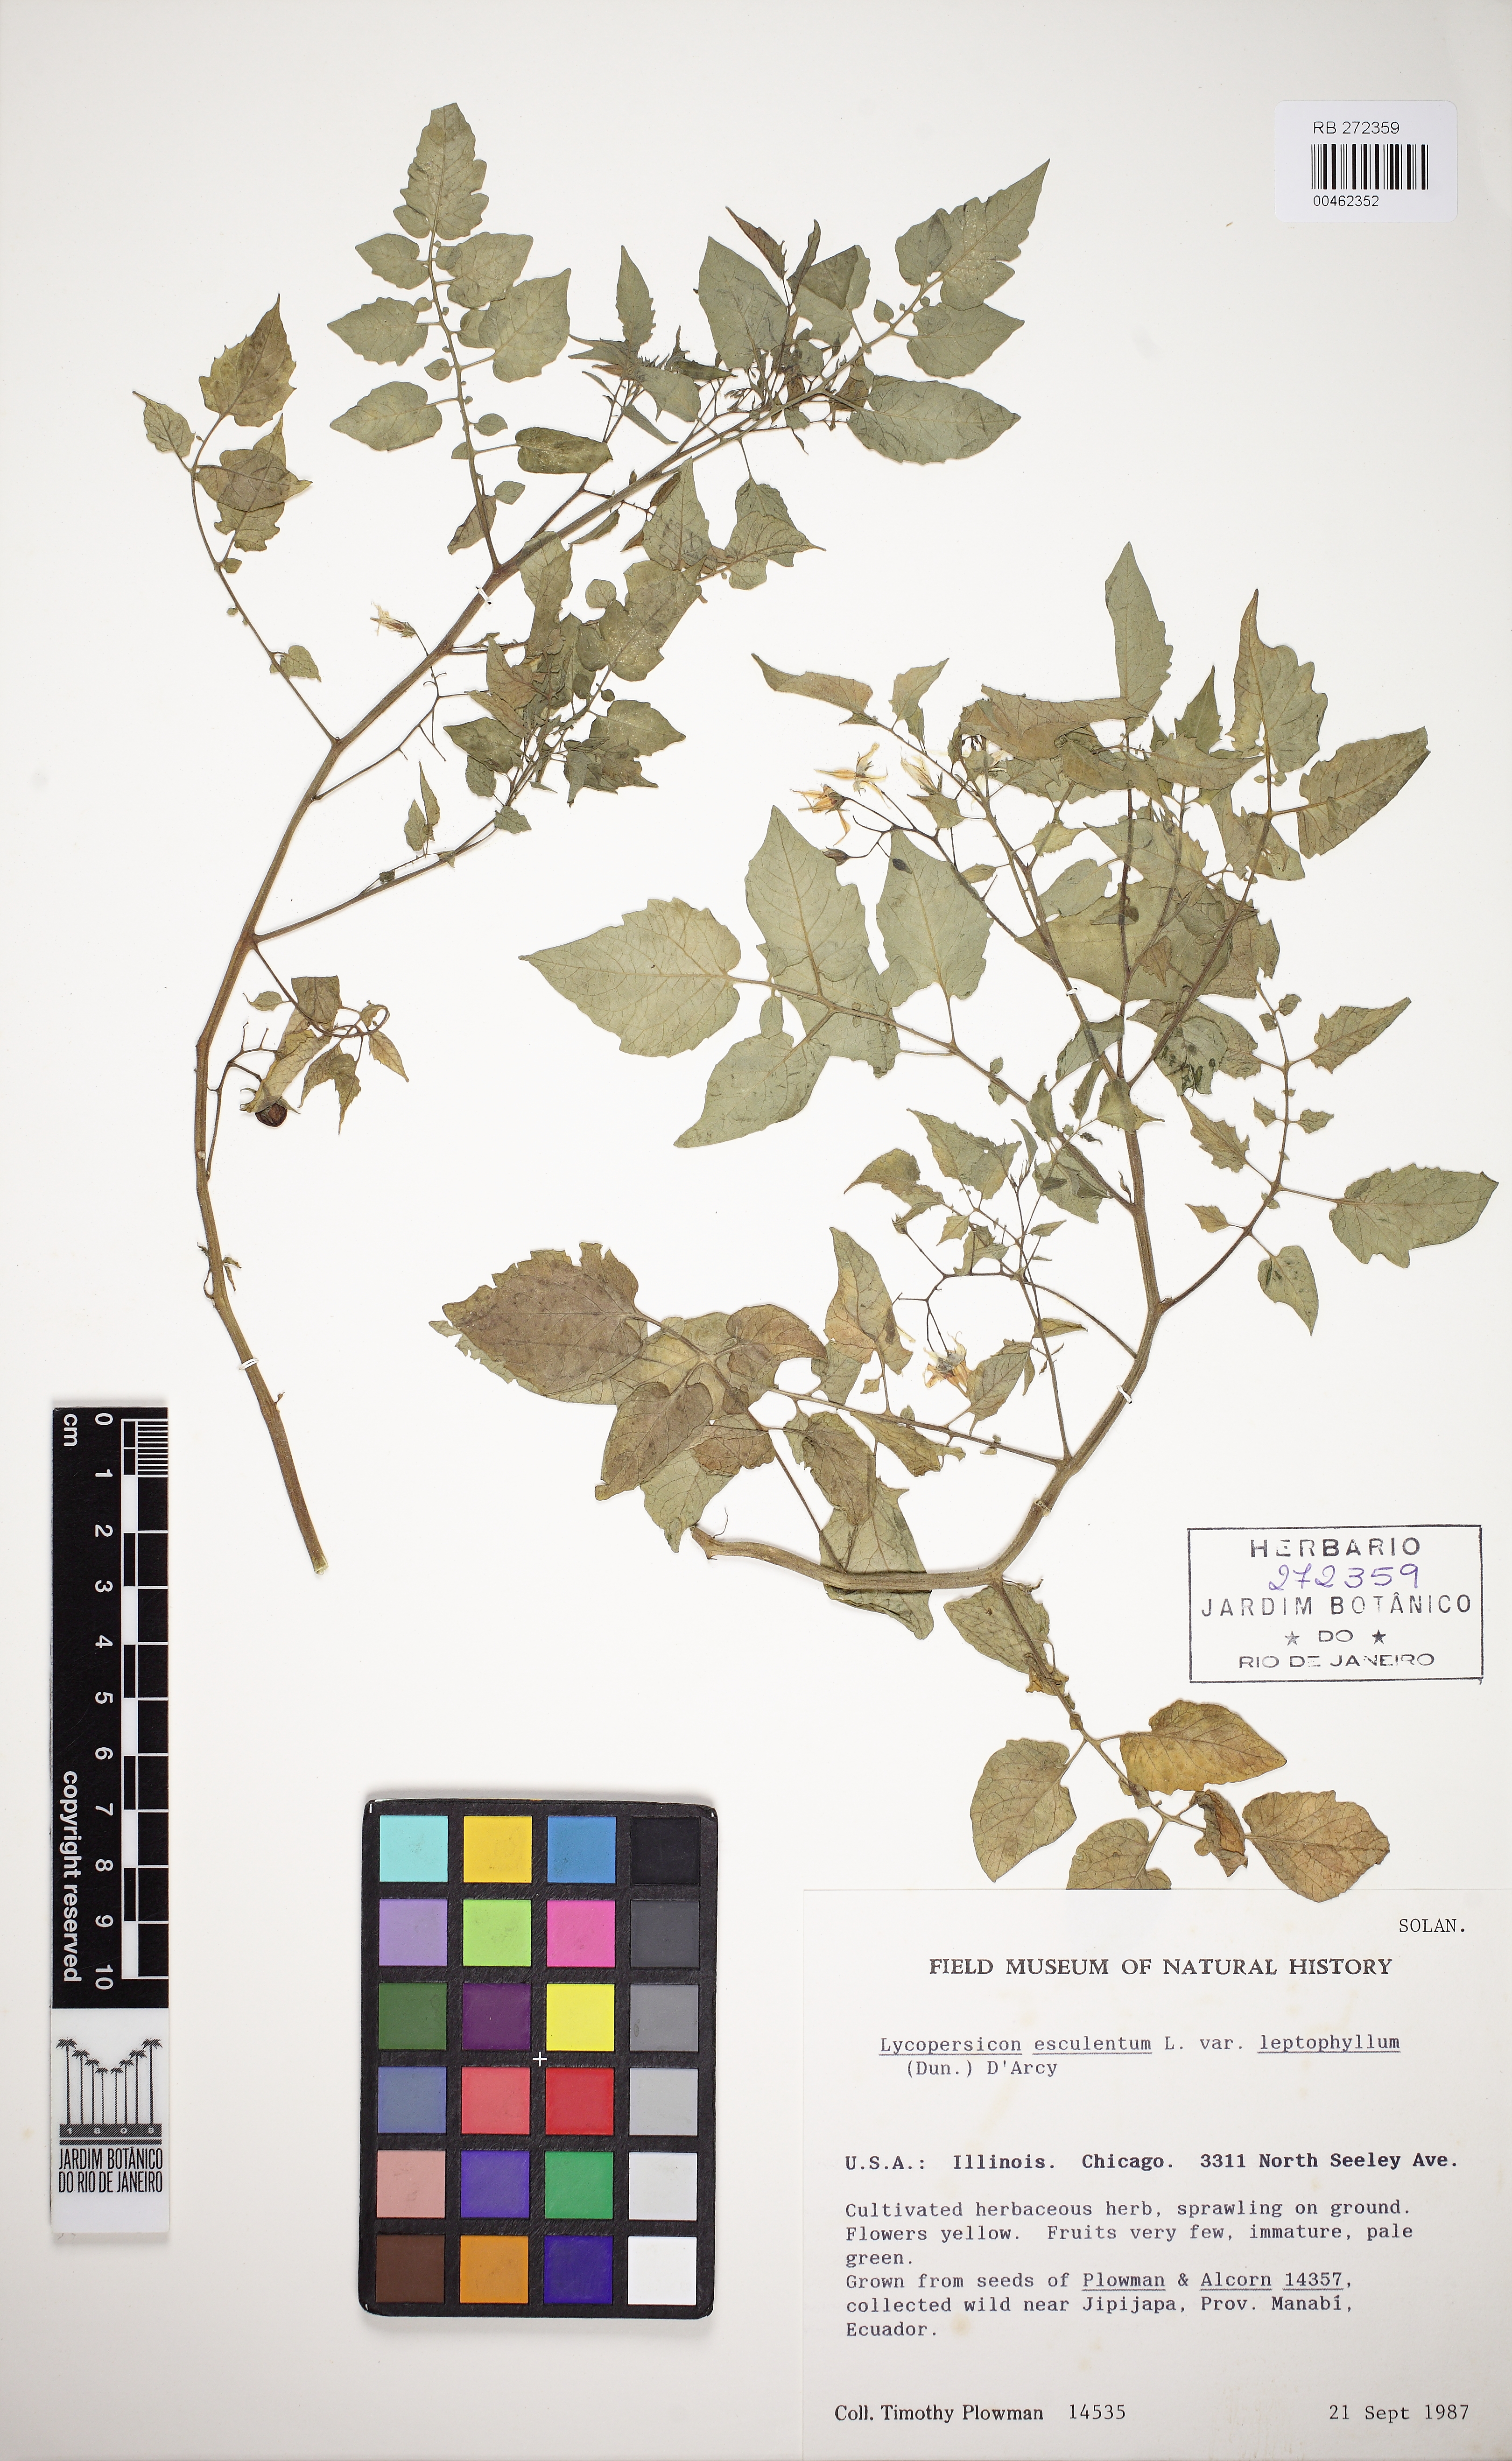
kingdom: Plantae
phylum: Tracheophyta
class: Magnoliopsida
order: Solanales
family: Solanaceae
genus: Solanum
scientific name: Solanum lycopersicum
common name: Garden tomato
